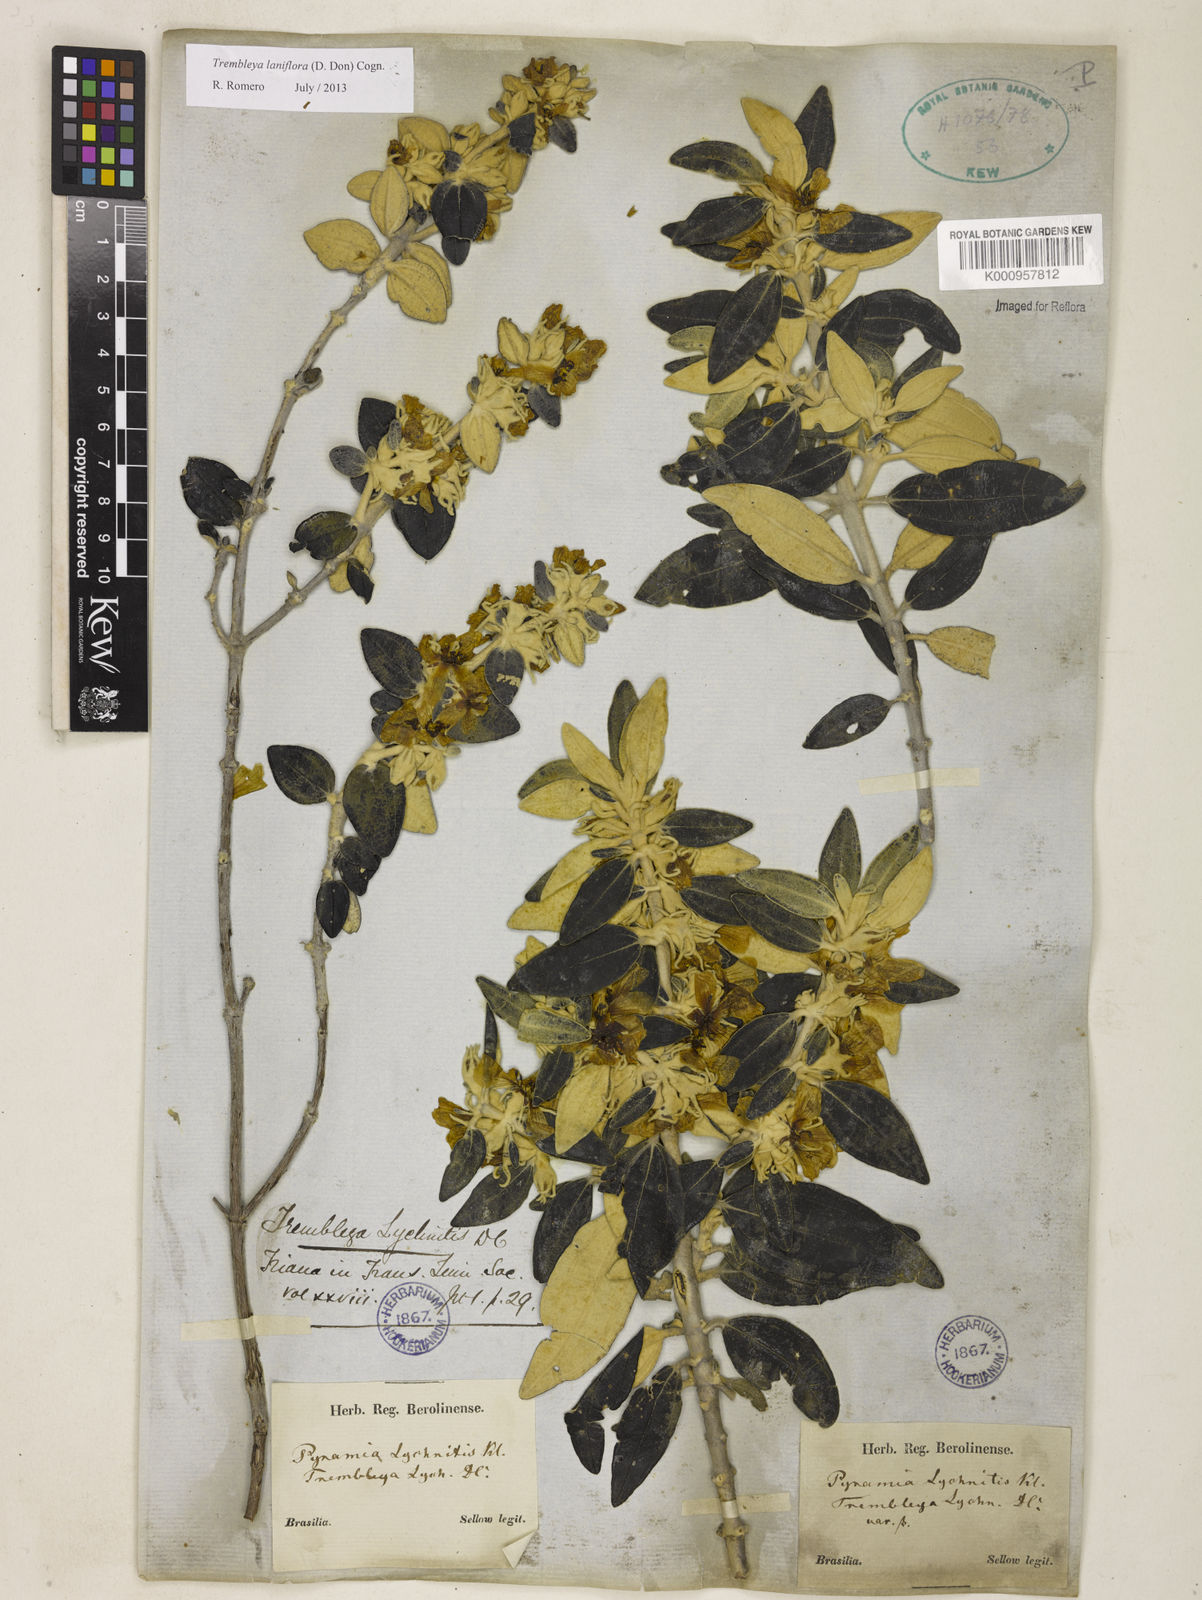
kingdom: Plantae
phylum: Tracheophyta
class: Magnoliopsida
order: Myrtales
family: Melastomataceae
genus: Microlicia
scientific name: Microlicia laniflora
